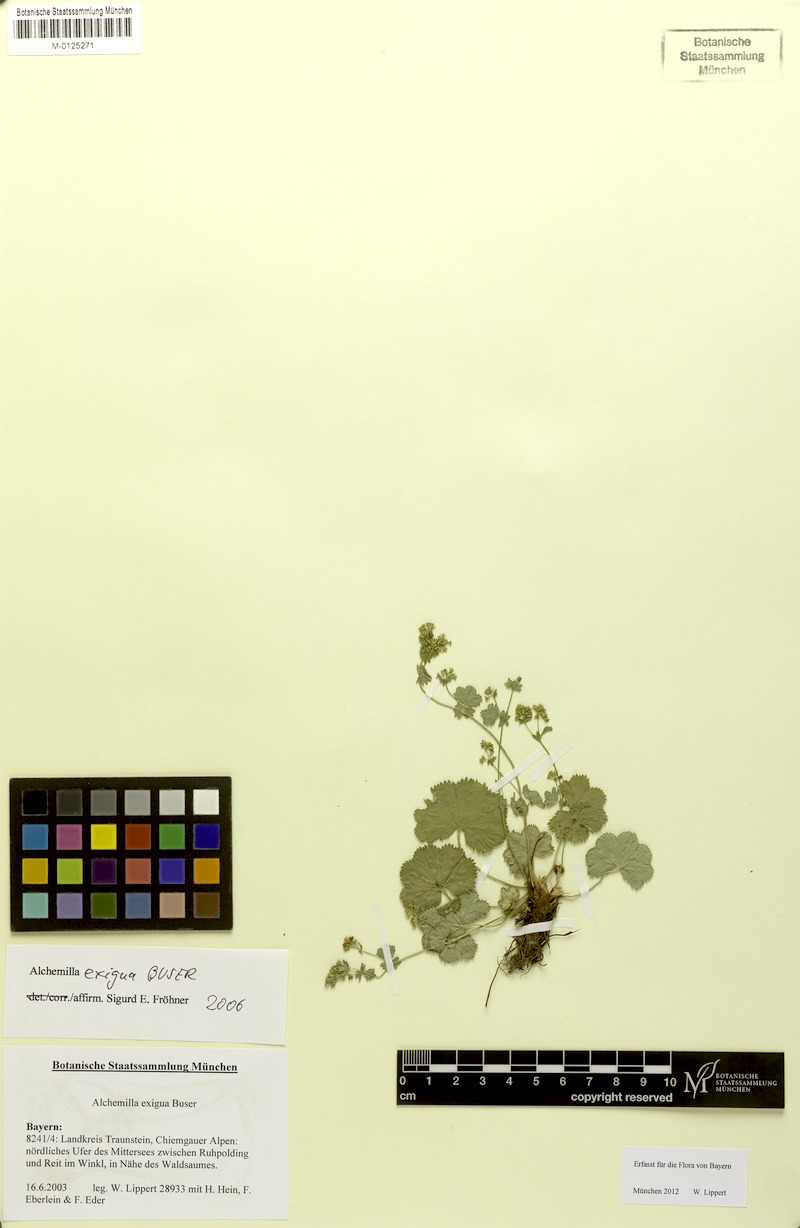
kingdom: Plantae
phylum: Tracheophyta
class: Magnoliopsida
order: Rosales
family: Rosaceae
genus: Alchemilla
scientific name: Alchemilla exigua
